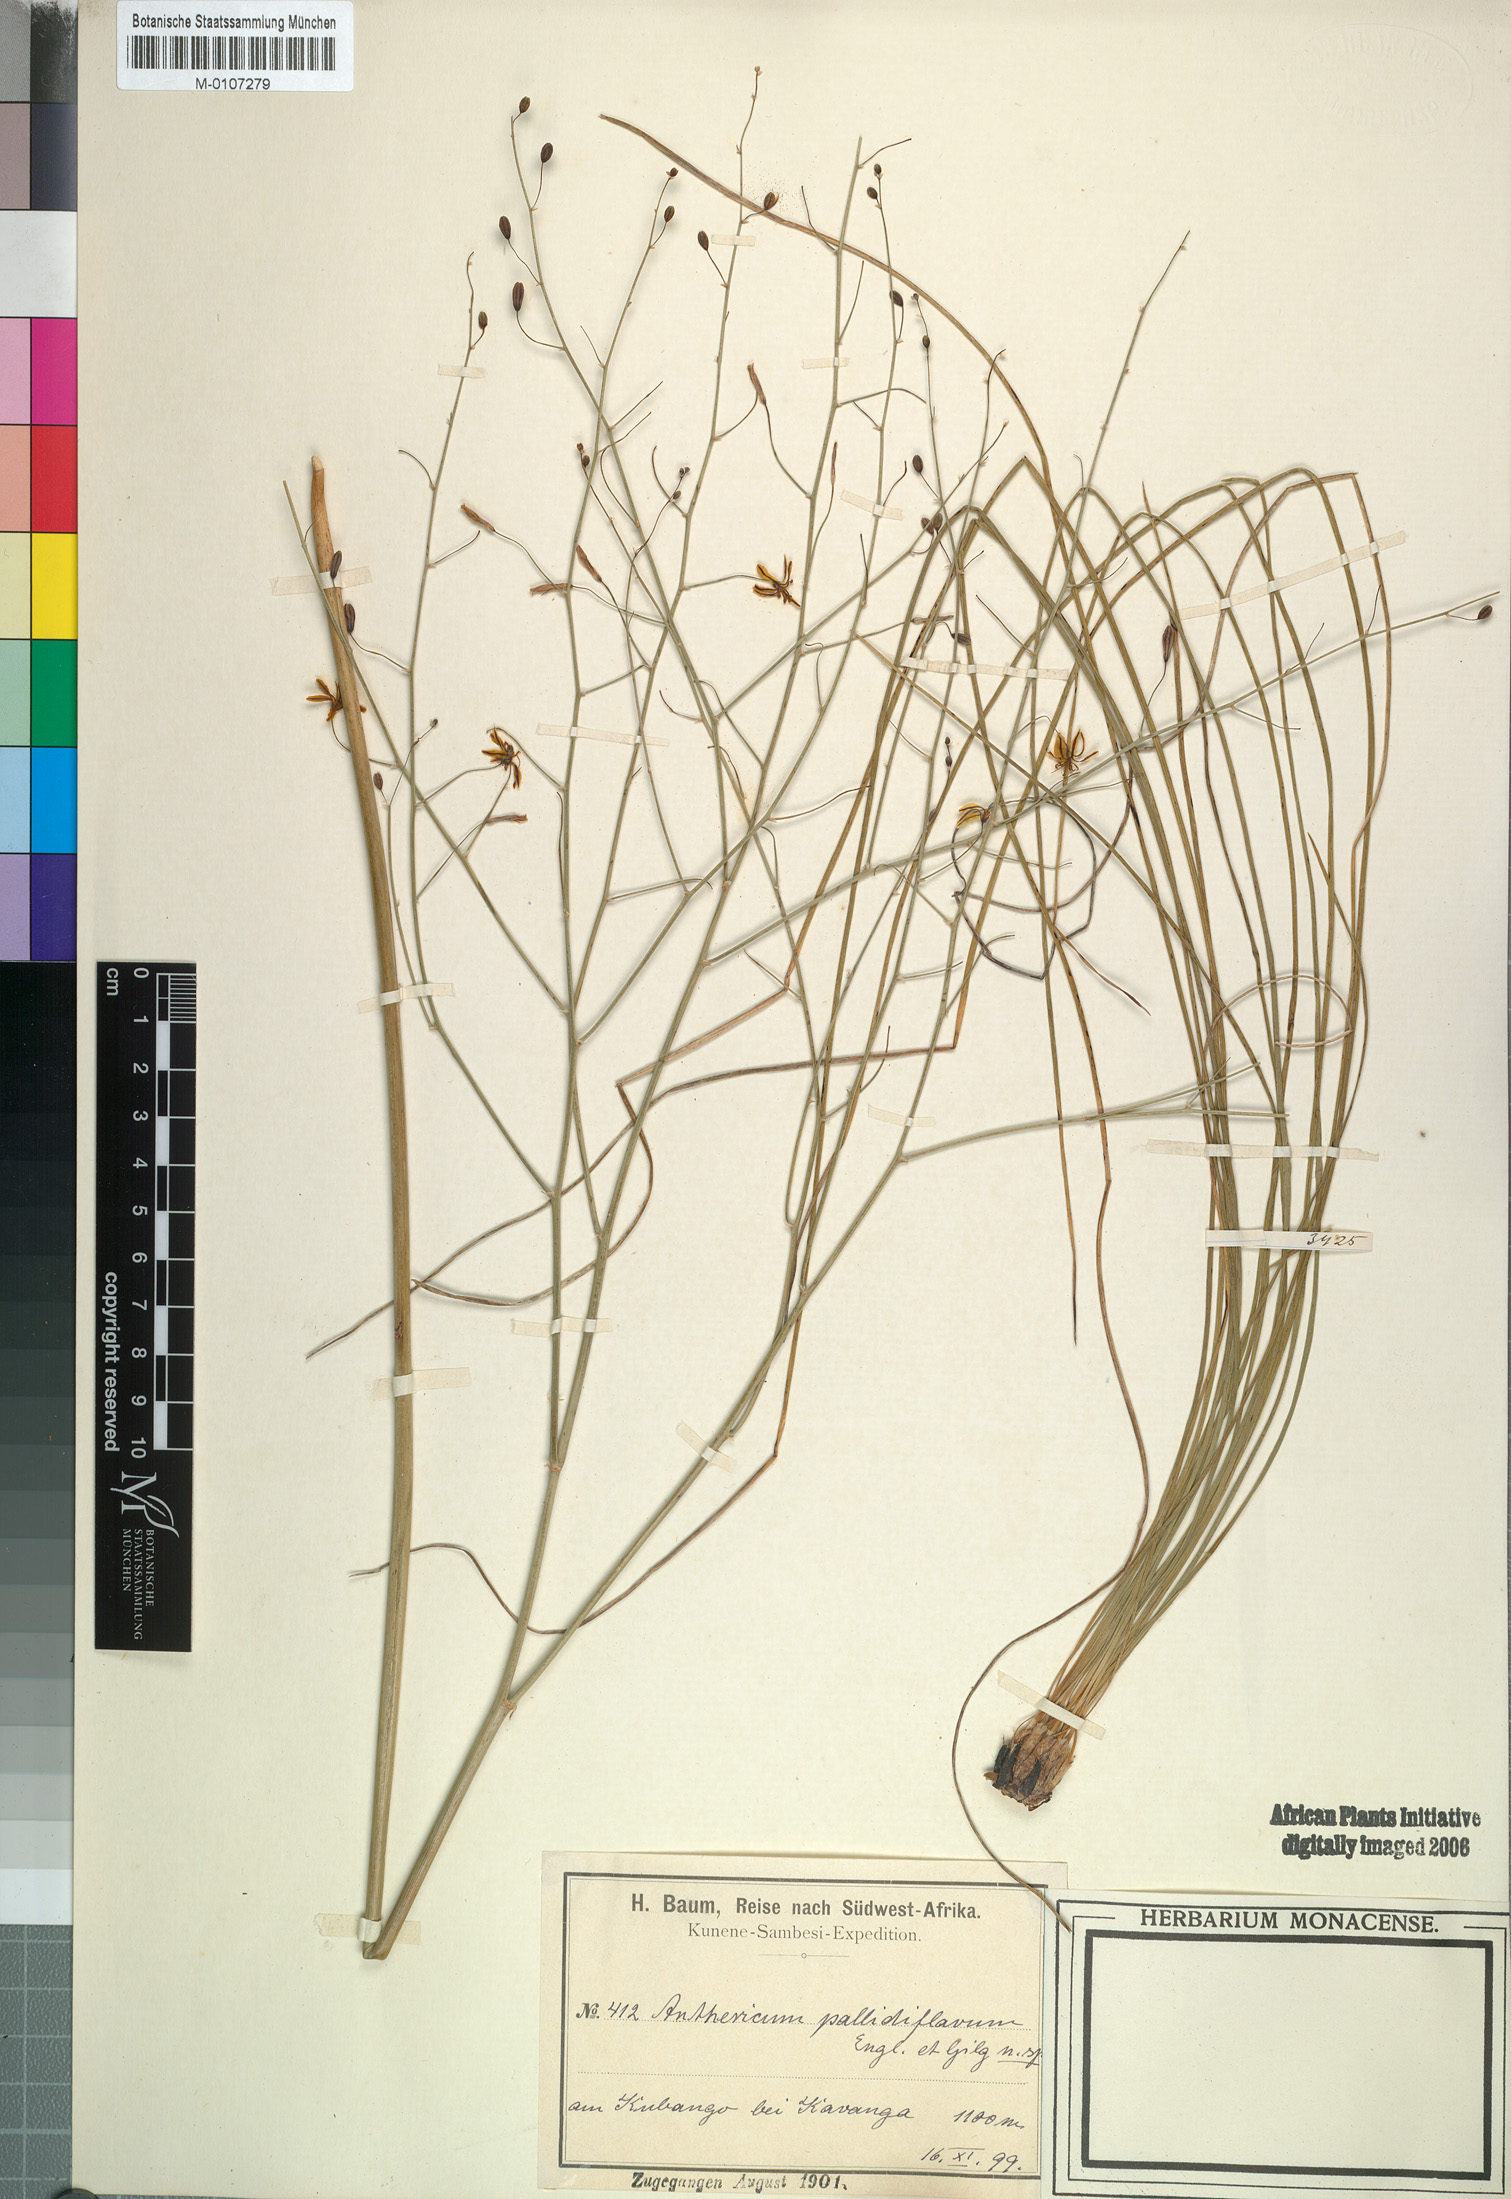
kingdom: Plantae
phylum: Tracheophyta
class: Liliopsida
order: Asparagales
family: Asphodelaceae
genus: Trachyandra
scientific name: Trachyandra arvensis
